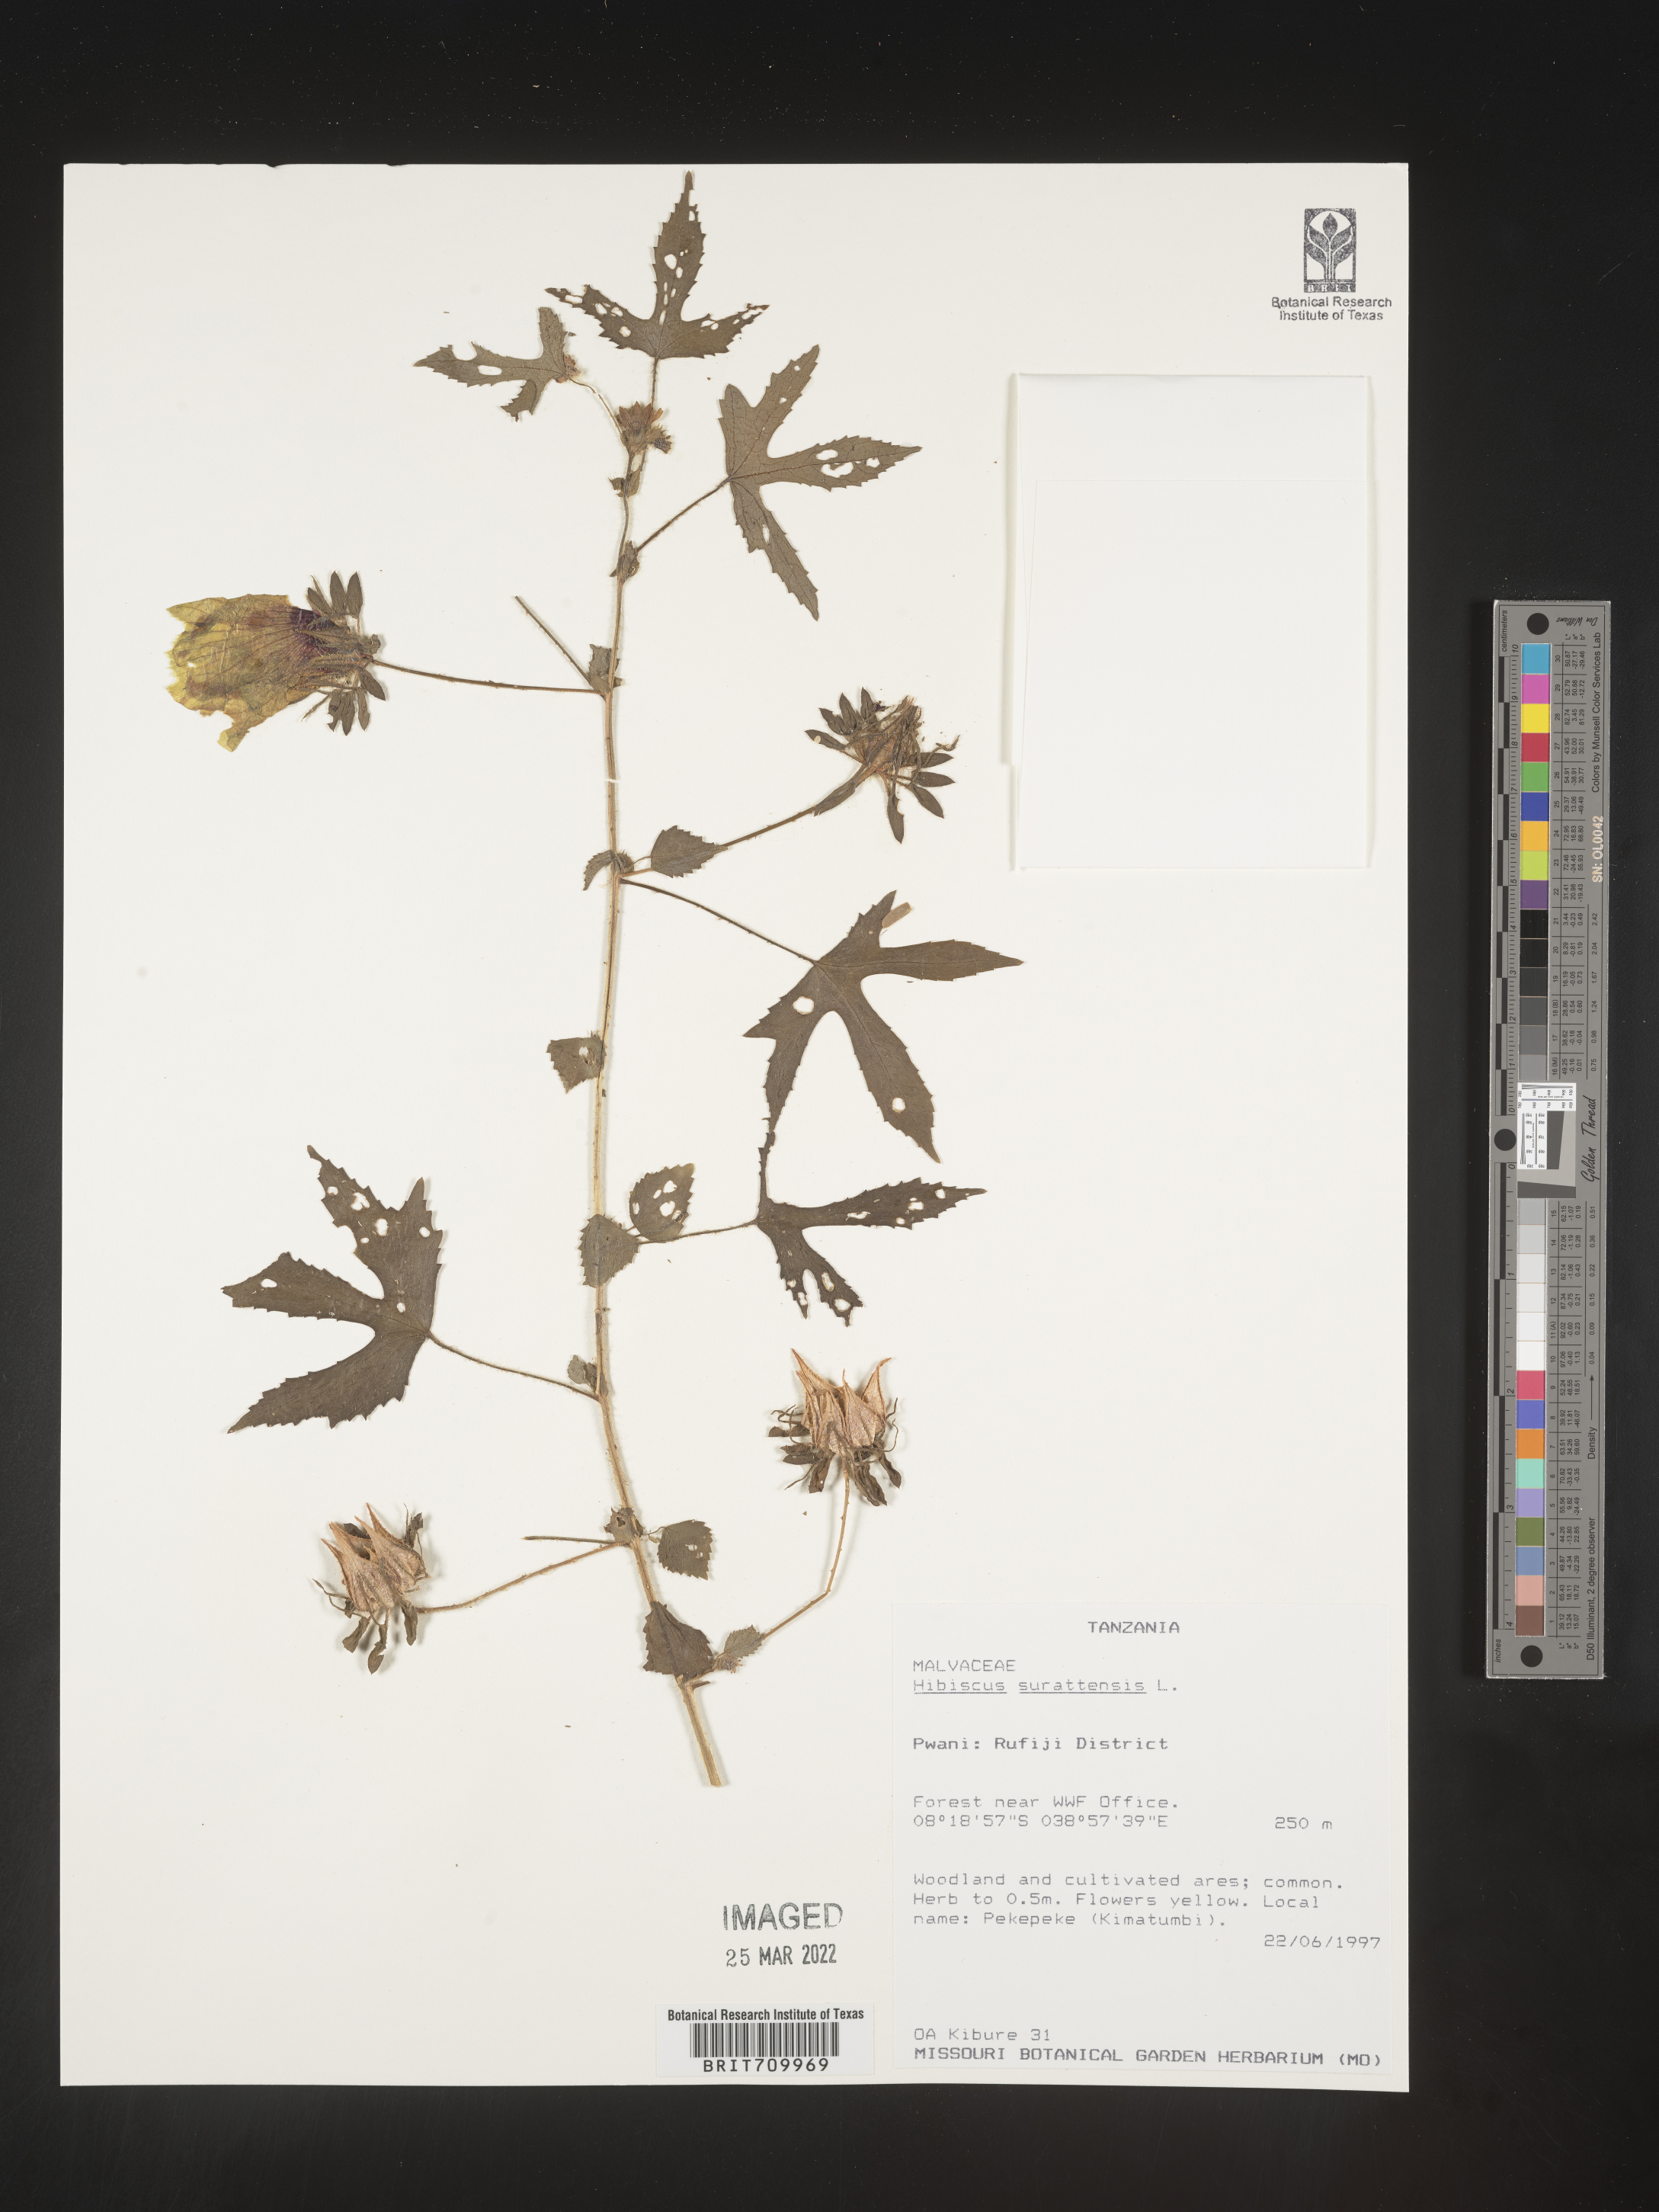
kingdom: Plantae
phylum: Tracheophyta
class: Magnoliopsida
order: Malvales
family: Malvaceae
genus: Hibiscus
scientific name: Hibiscus
